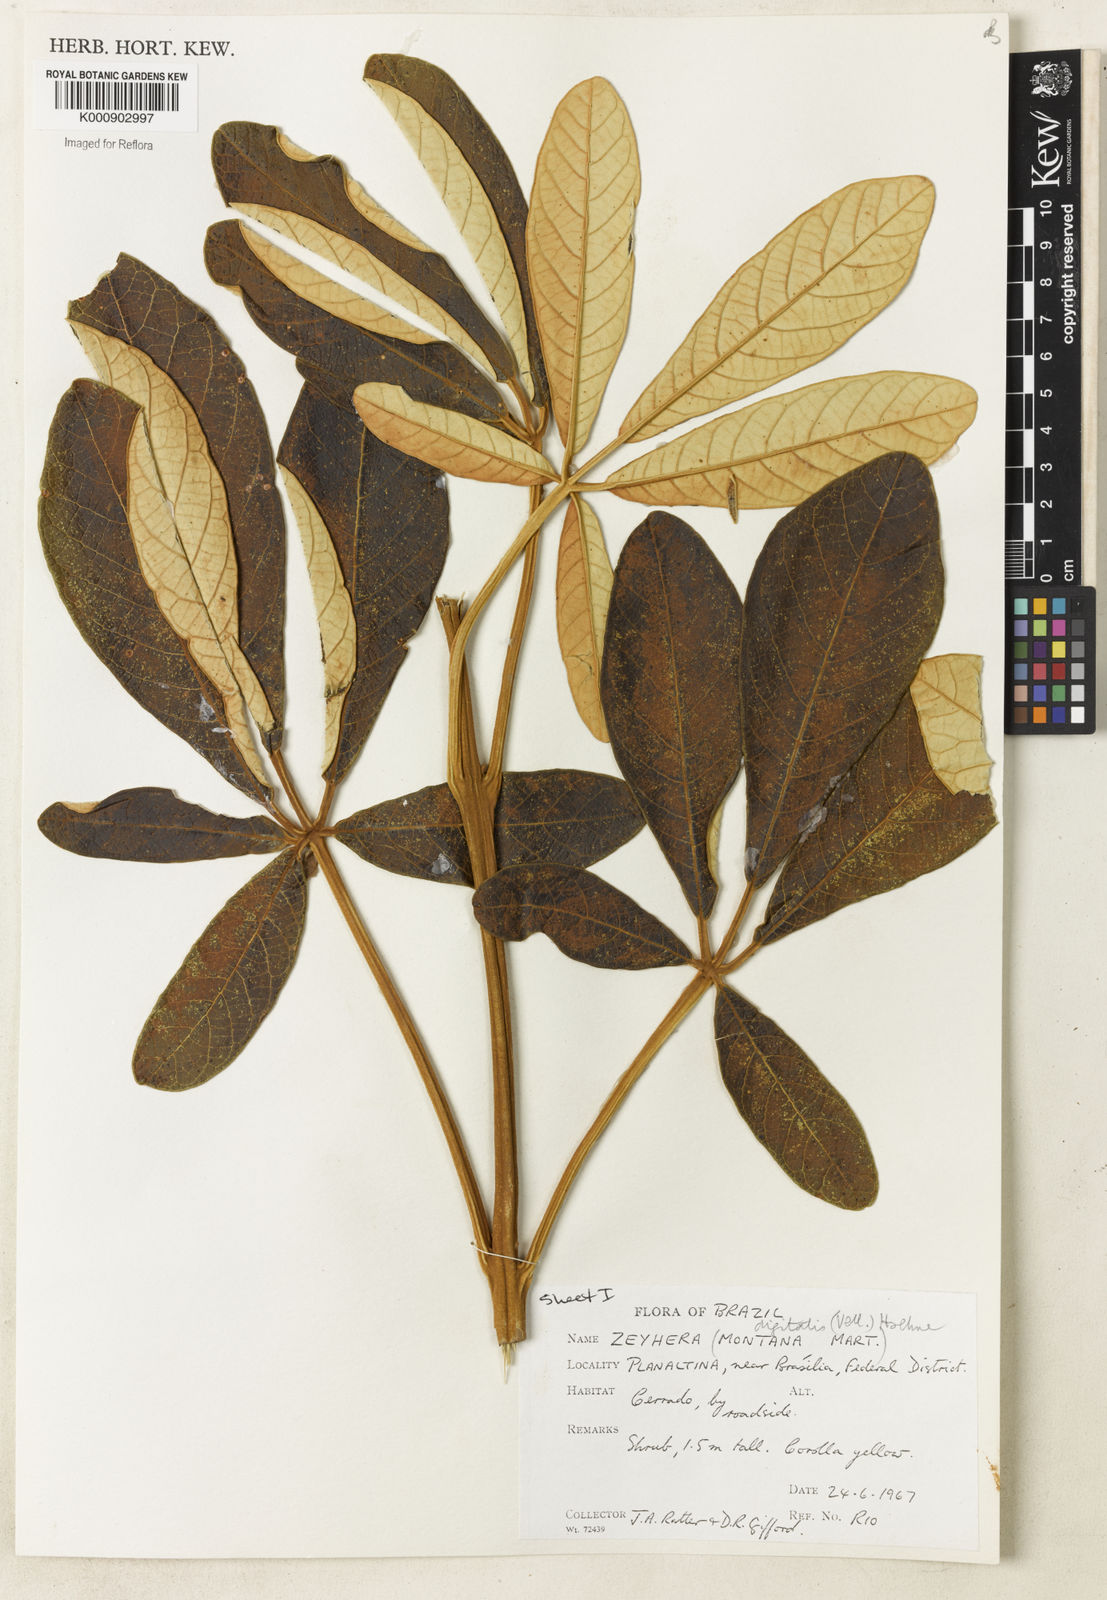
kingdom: Plantae
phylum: Tracheophyta
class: Magnoliopsida
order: Lamiales
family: Bignoniaceae
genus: Zeyheria
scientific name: Zeyheria
